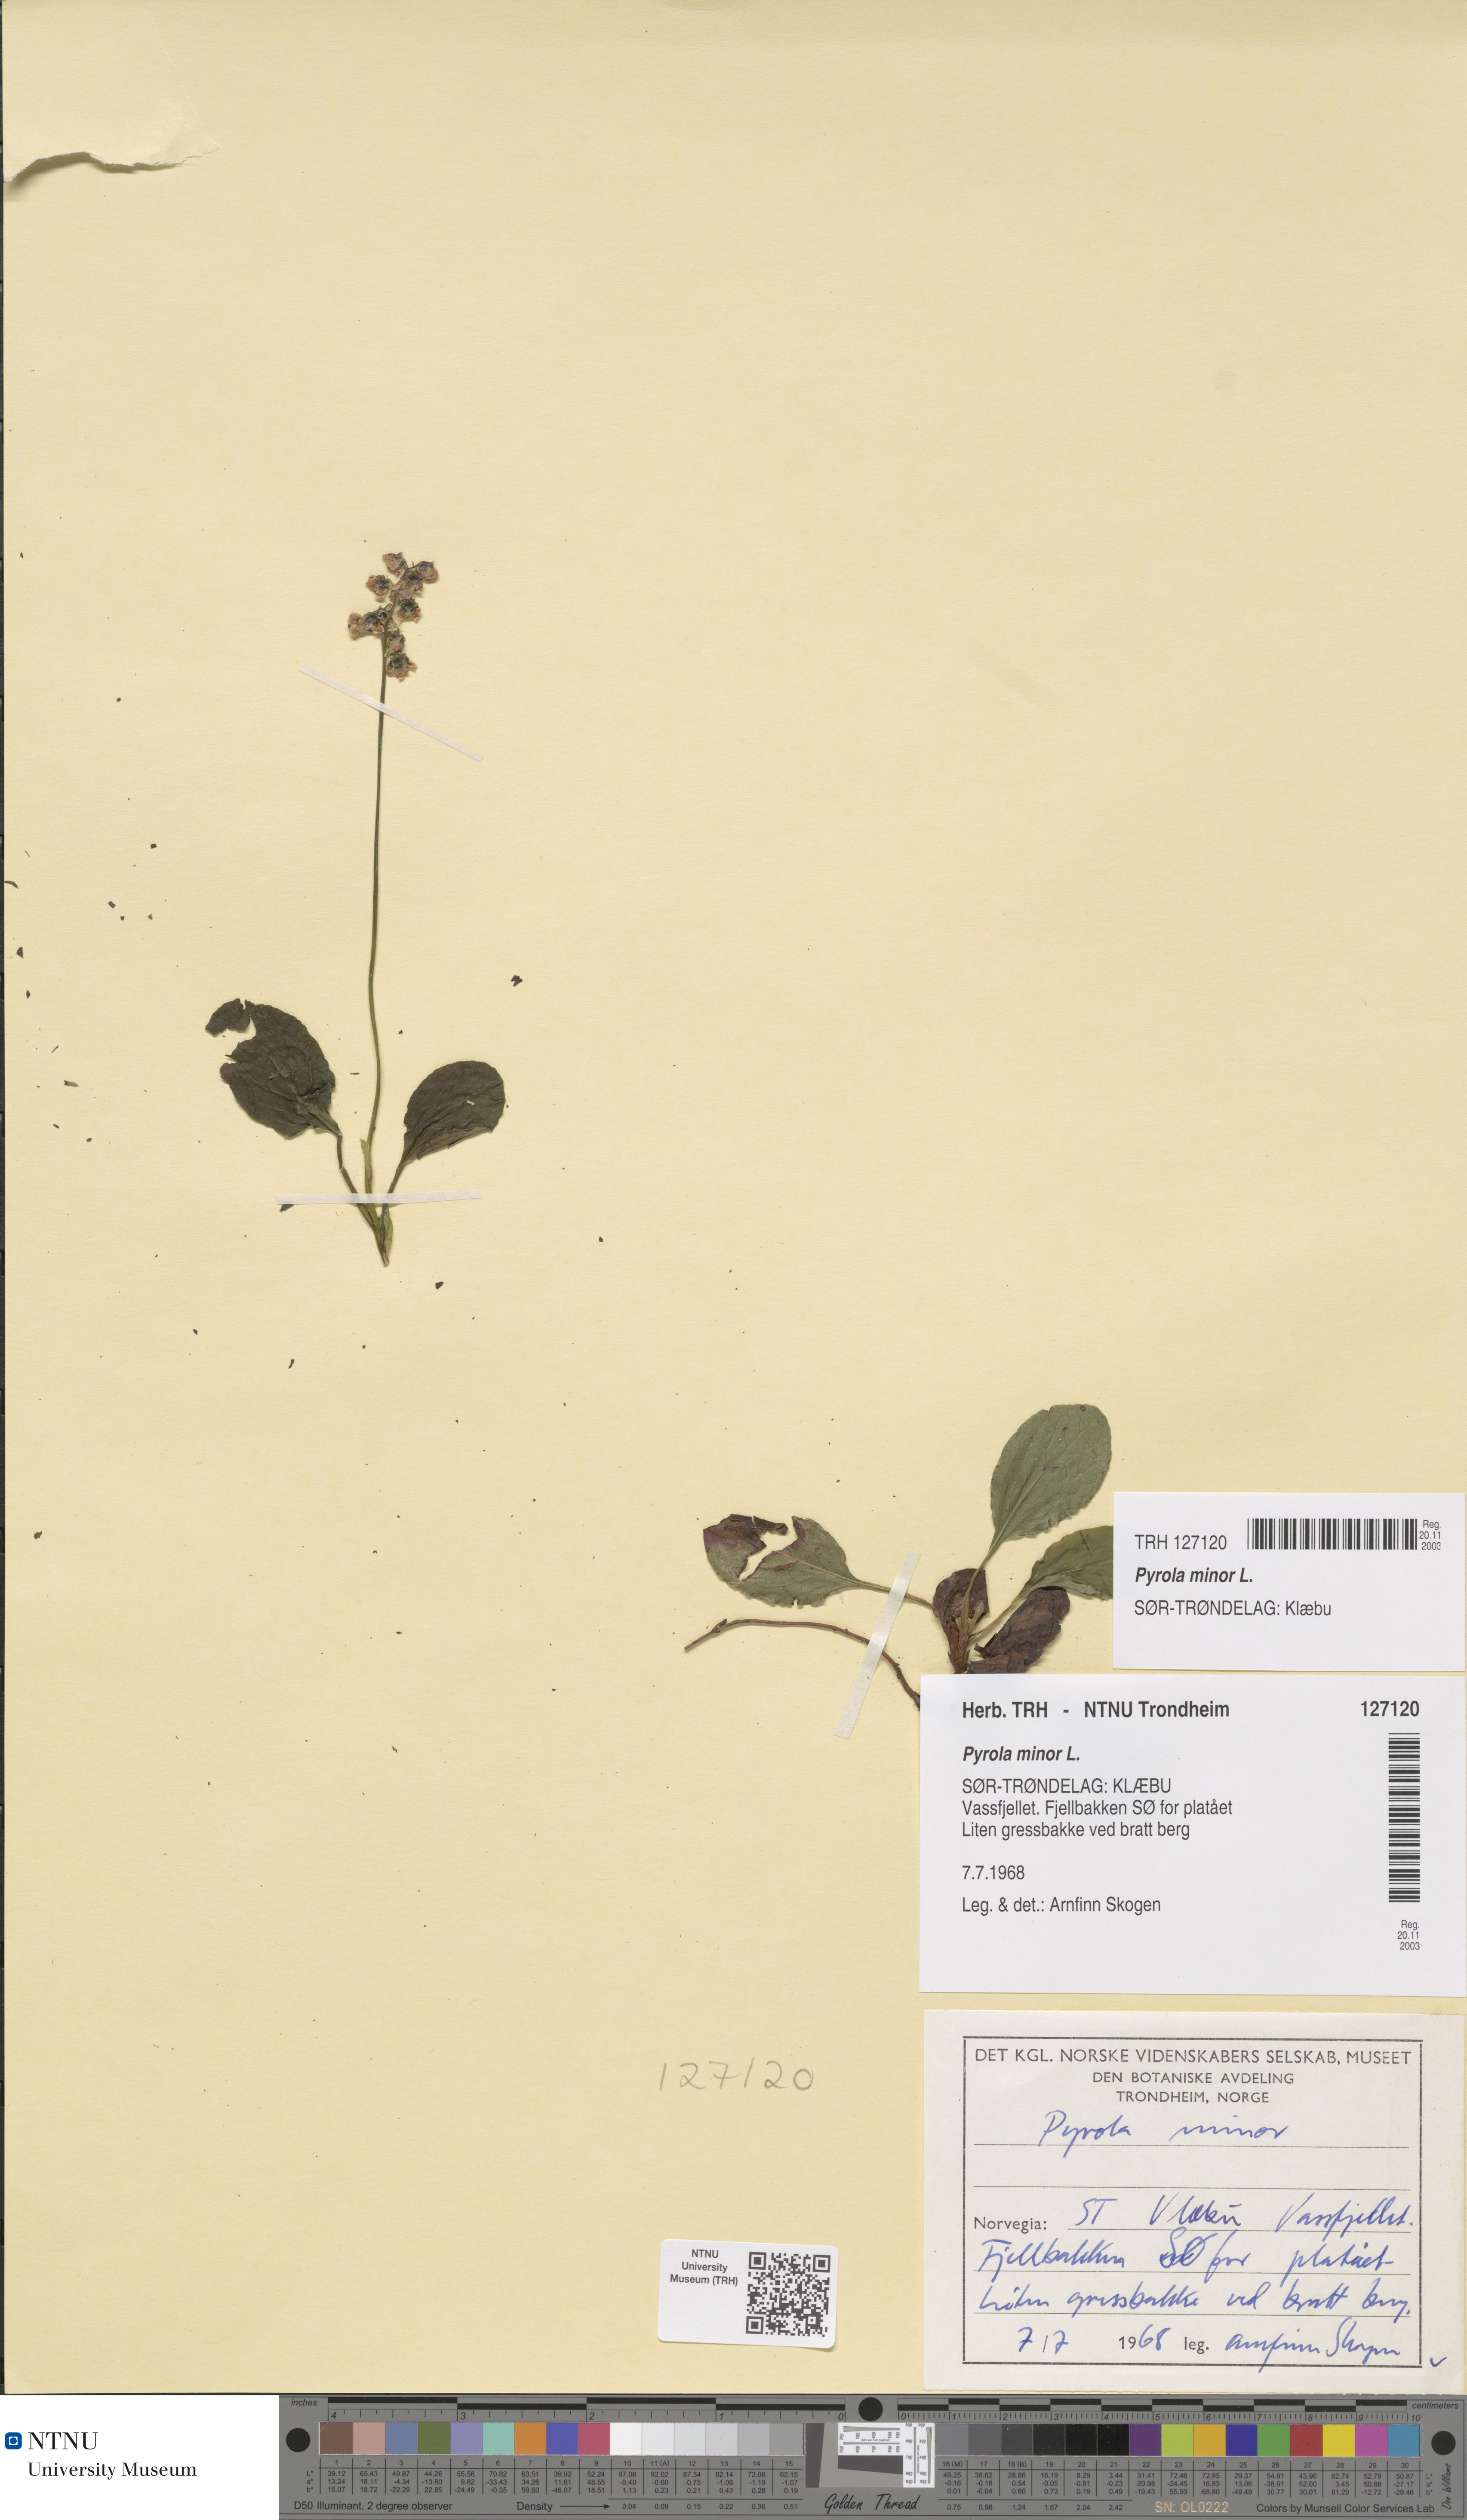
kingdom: Plantae
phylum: Tracheophyta
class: Magnoliopsida
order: Ericales
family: Ericaceae
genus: Pyrola
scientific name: Pyrola minor
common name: Common wintergreen
